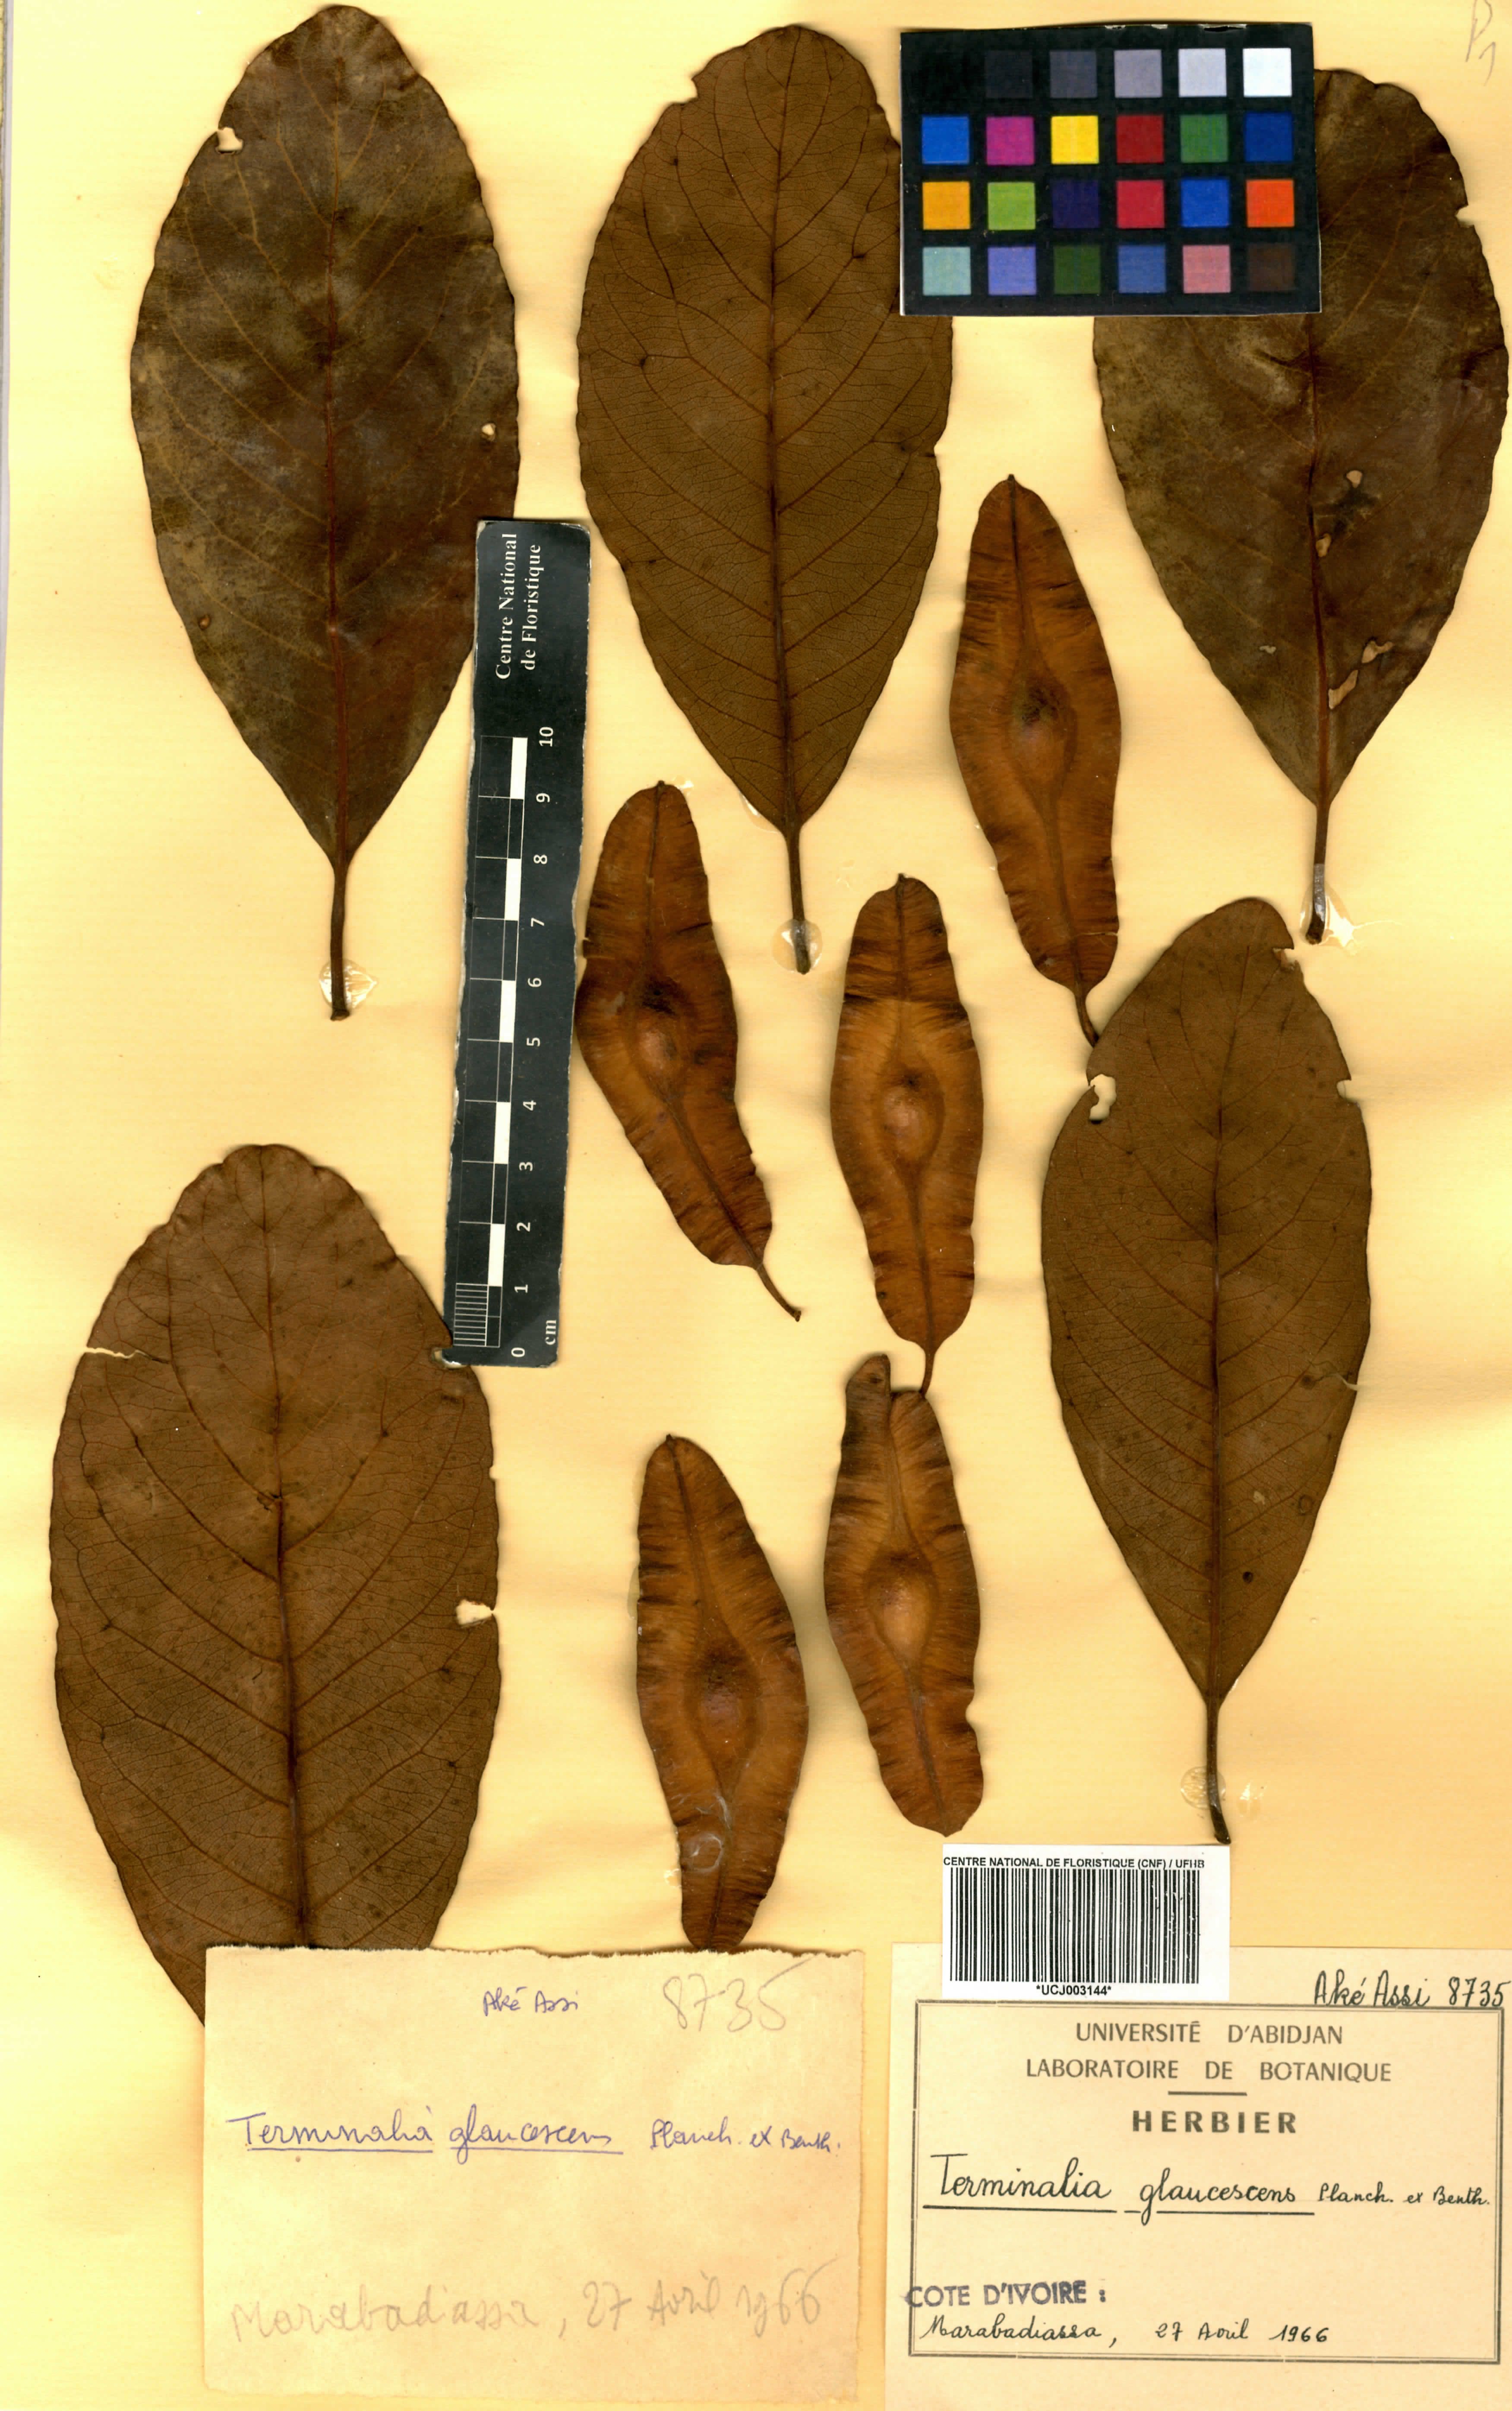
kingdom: Plantae
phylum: Tracheophyta
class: Magnoliopsida
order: Myrtales
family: Combretaceae
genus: Terminalia
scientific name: Terminalia schimperiana
